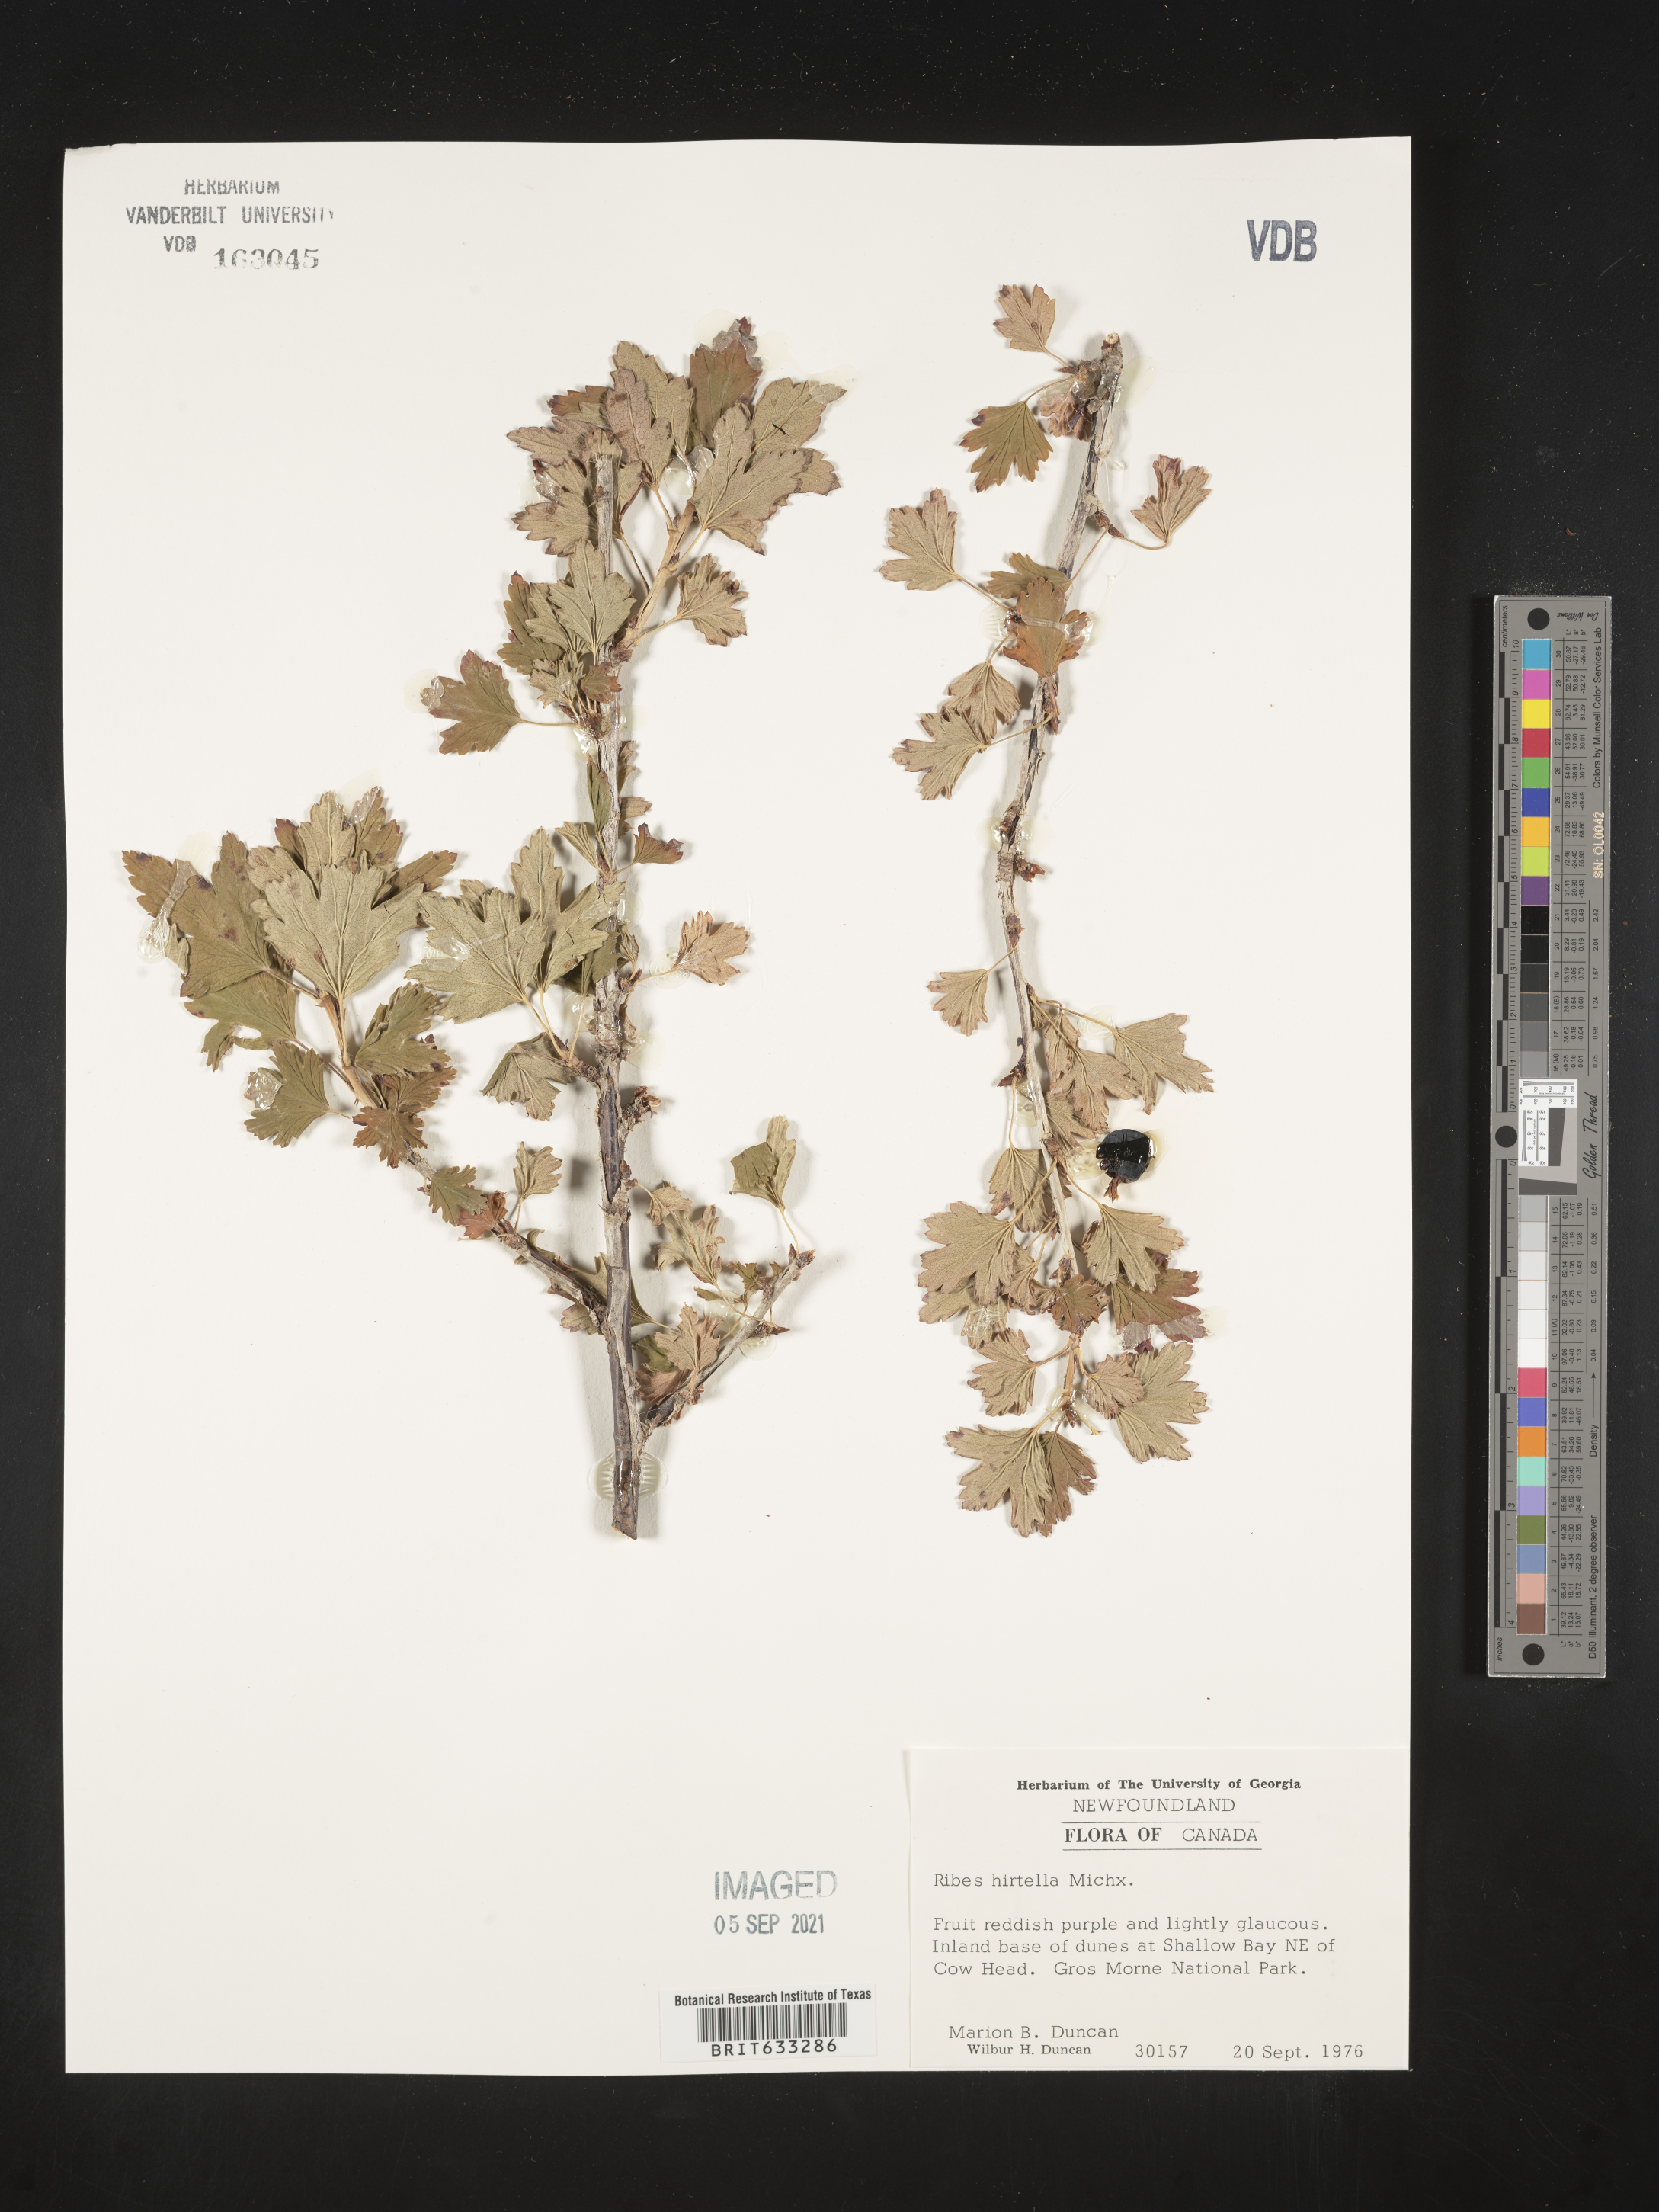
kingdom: Plantae
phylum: Tracheophyta
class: Magnoliopsida
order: Saxifragales
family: Grossulariaceae
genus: Ribes
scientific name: Ribes
